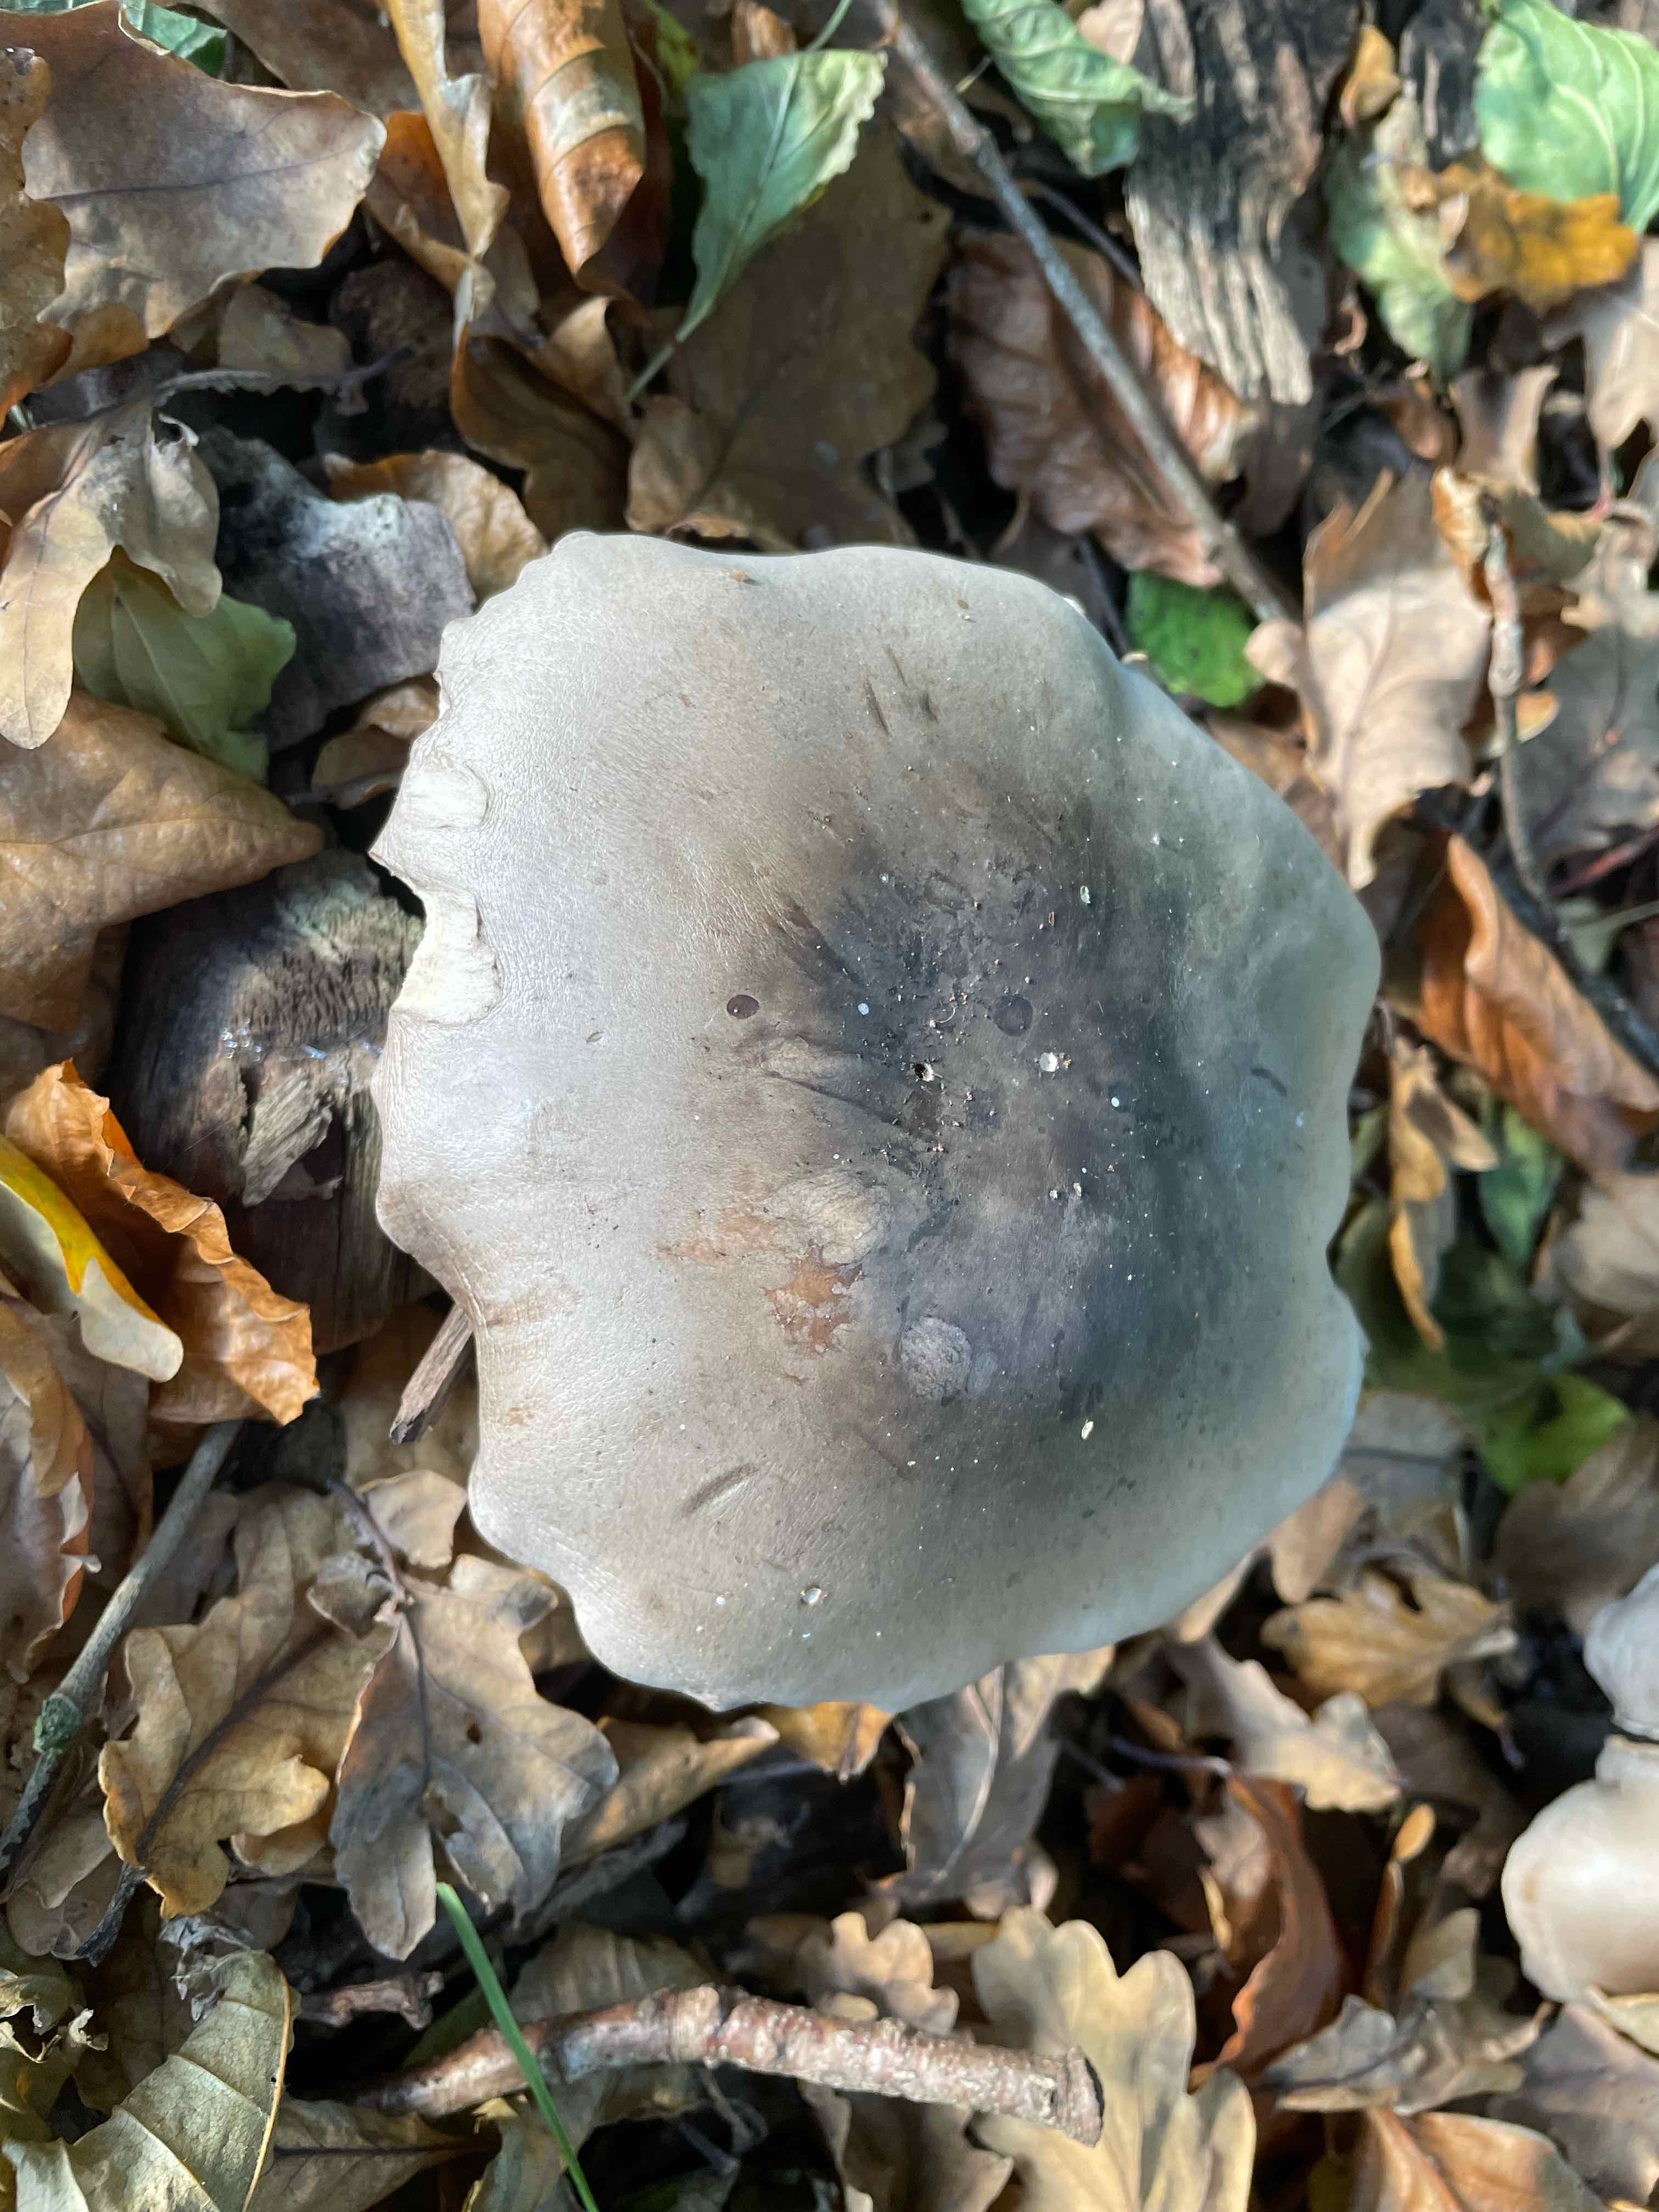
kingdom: Fungi
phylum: Basidiomycota
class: Agaricomycetes
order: Agaricales
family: Tricholomataceae
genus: Clitocybe
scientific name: Clitocybe nebularis
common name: tåge-tragthat
